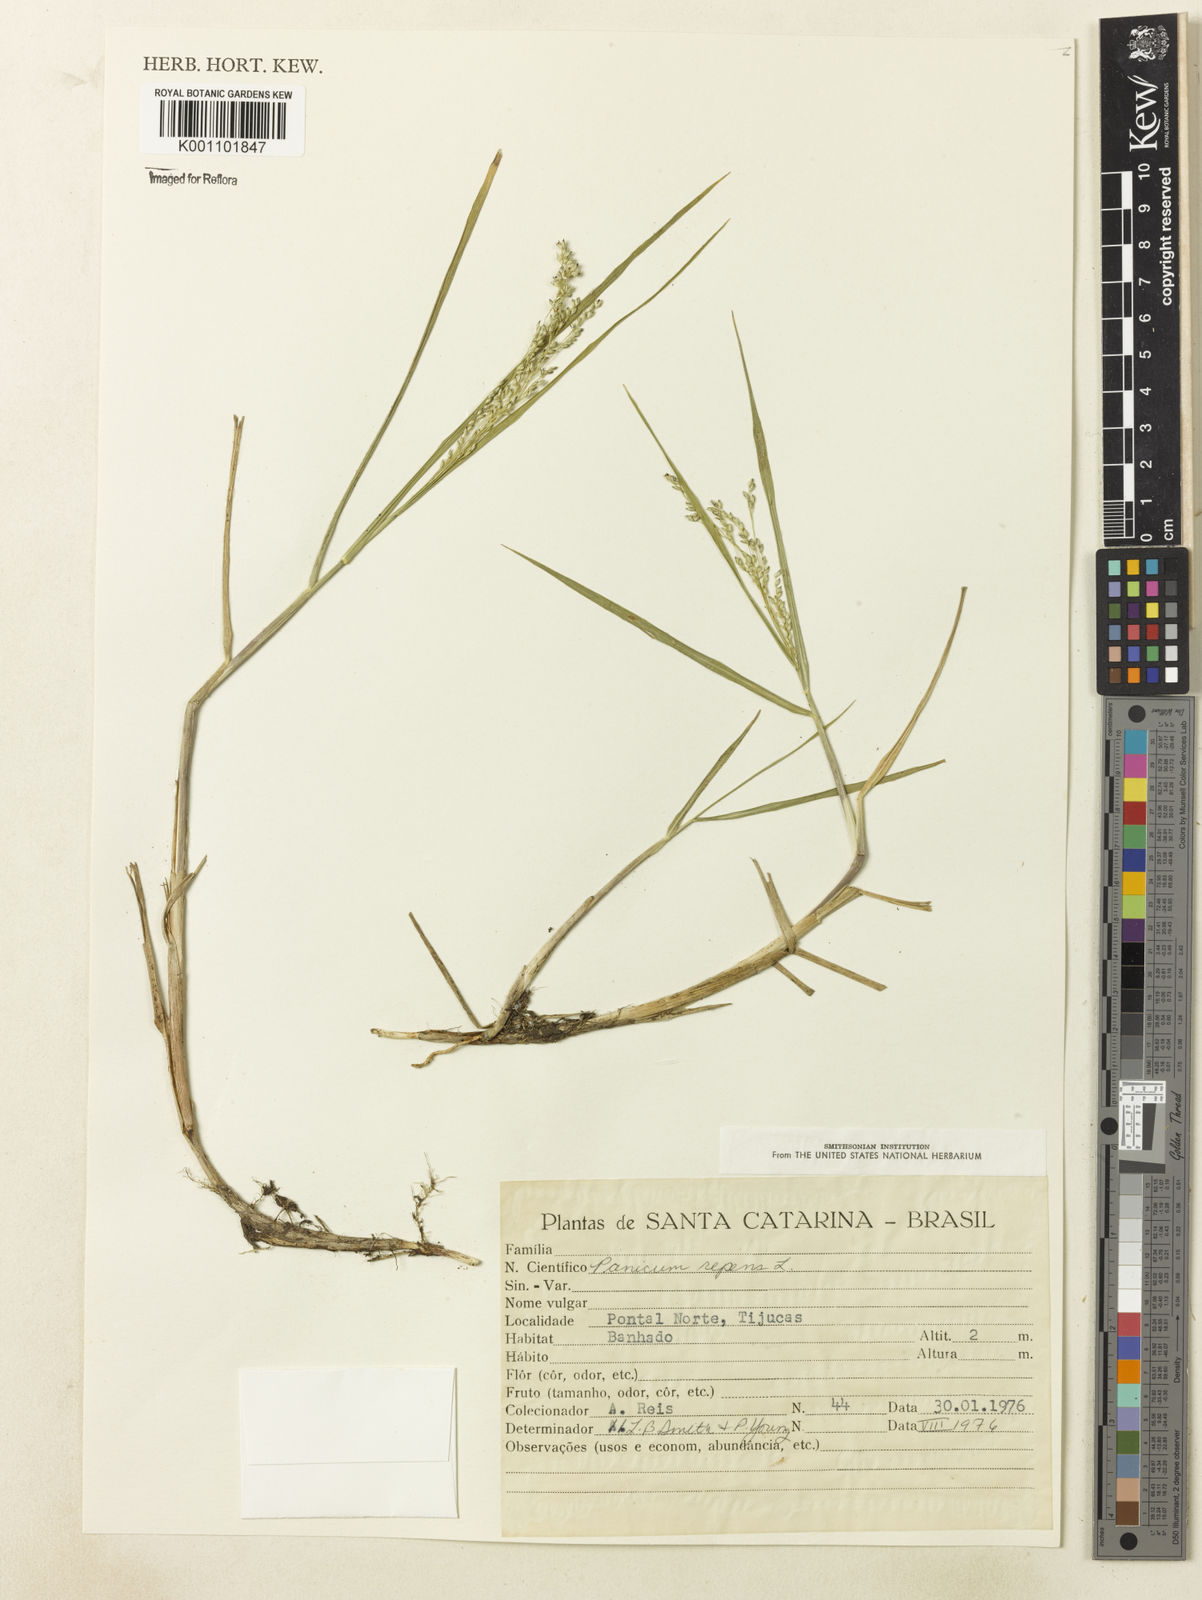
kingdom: Plantae
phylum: Tracheophyta
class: Liliopsida
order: Poales
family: Poaceae
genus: Panicum
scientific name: Panicum gouinii
